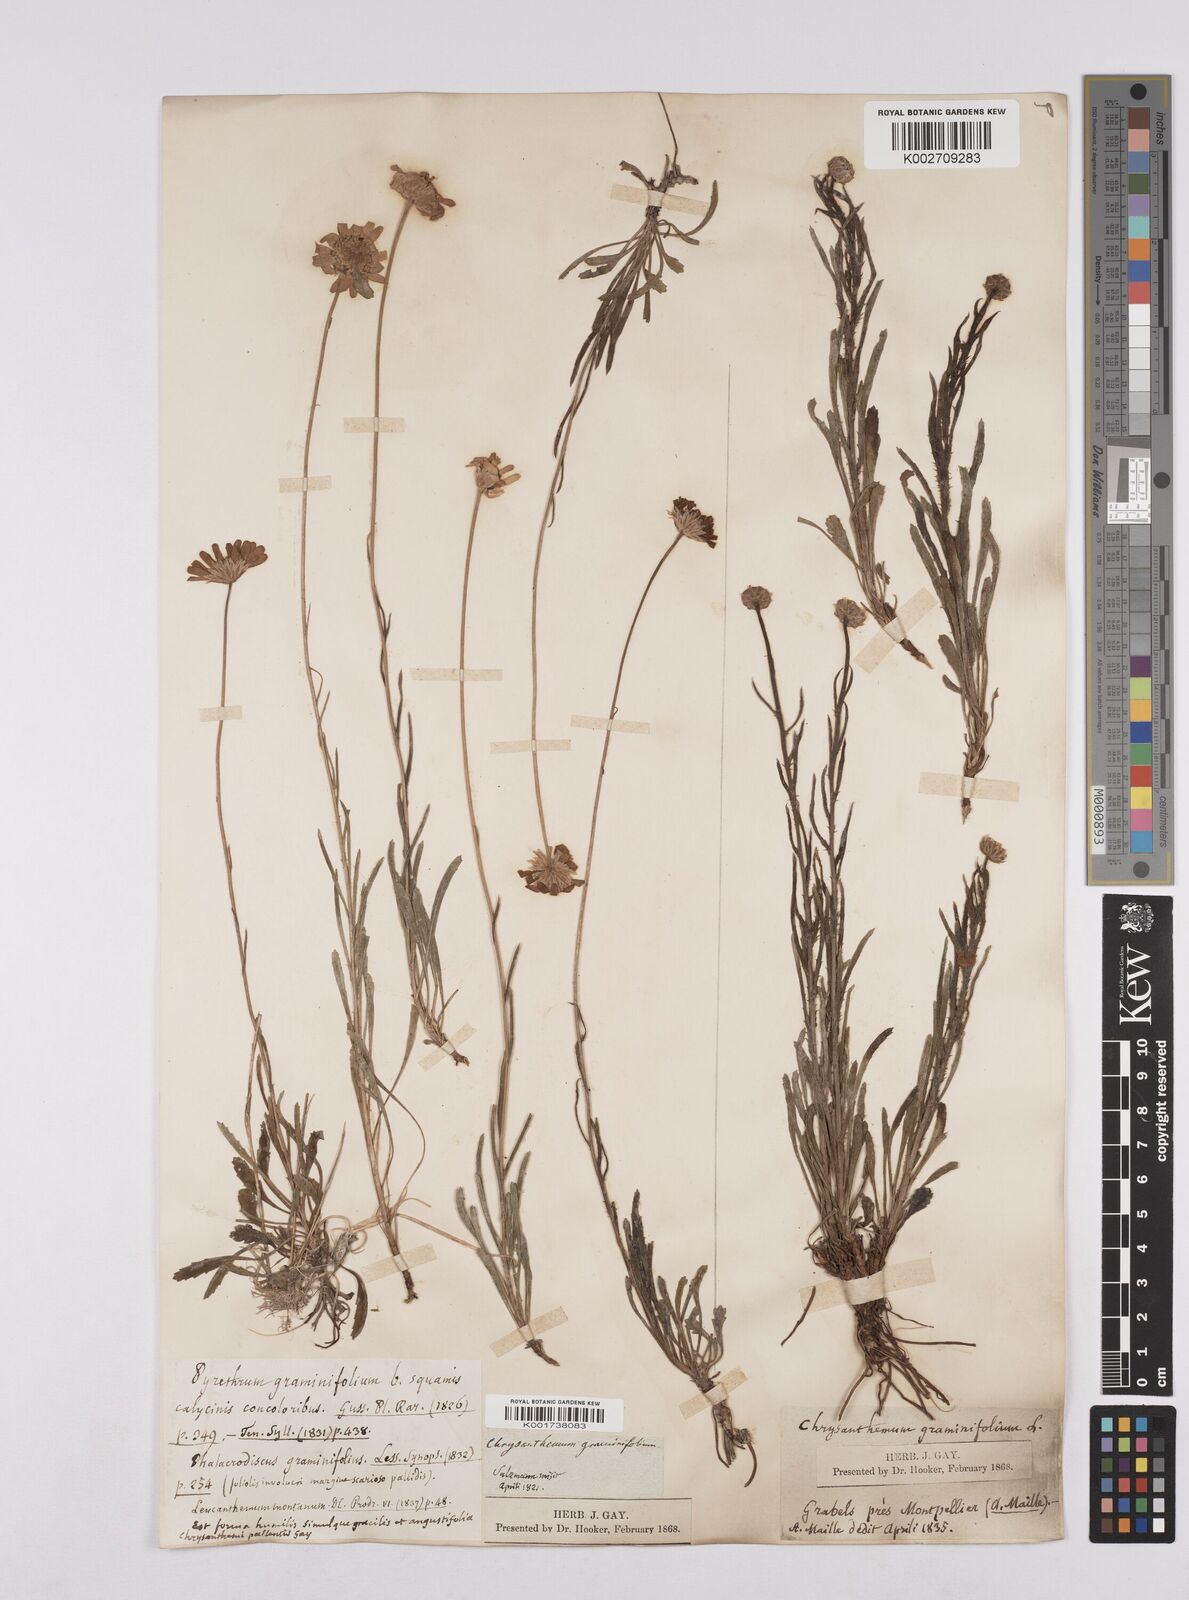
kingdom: Plantae
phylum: Tracheophyta
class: Magnoliopsida
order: Asterales
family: Asteraceae
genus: Leucanthemum
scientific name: Leucanthemum chloroticum
